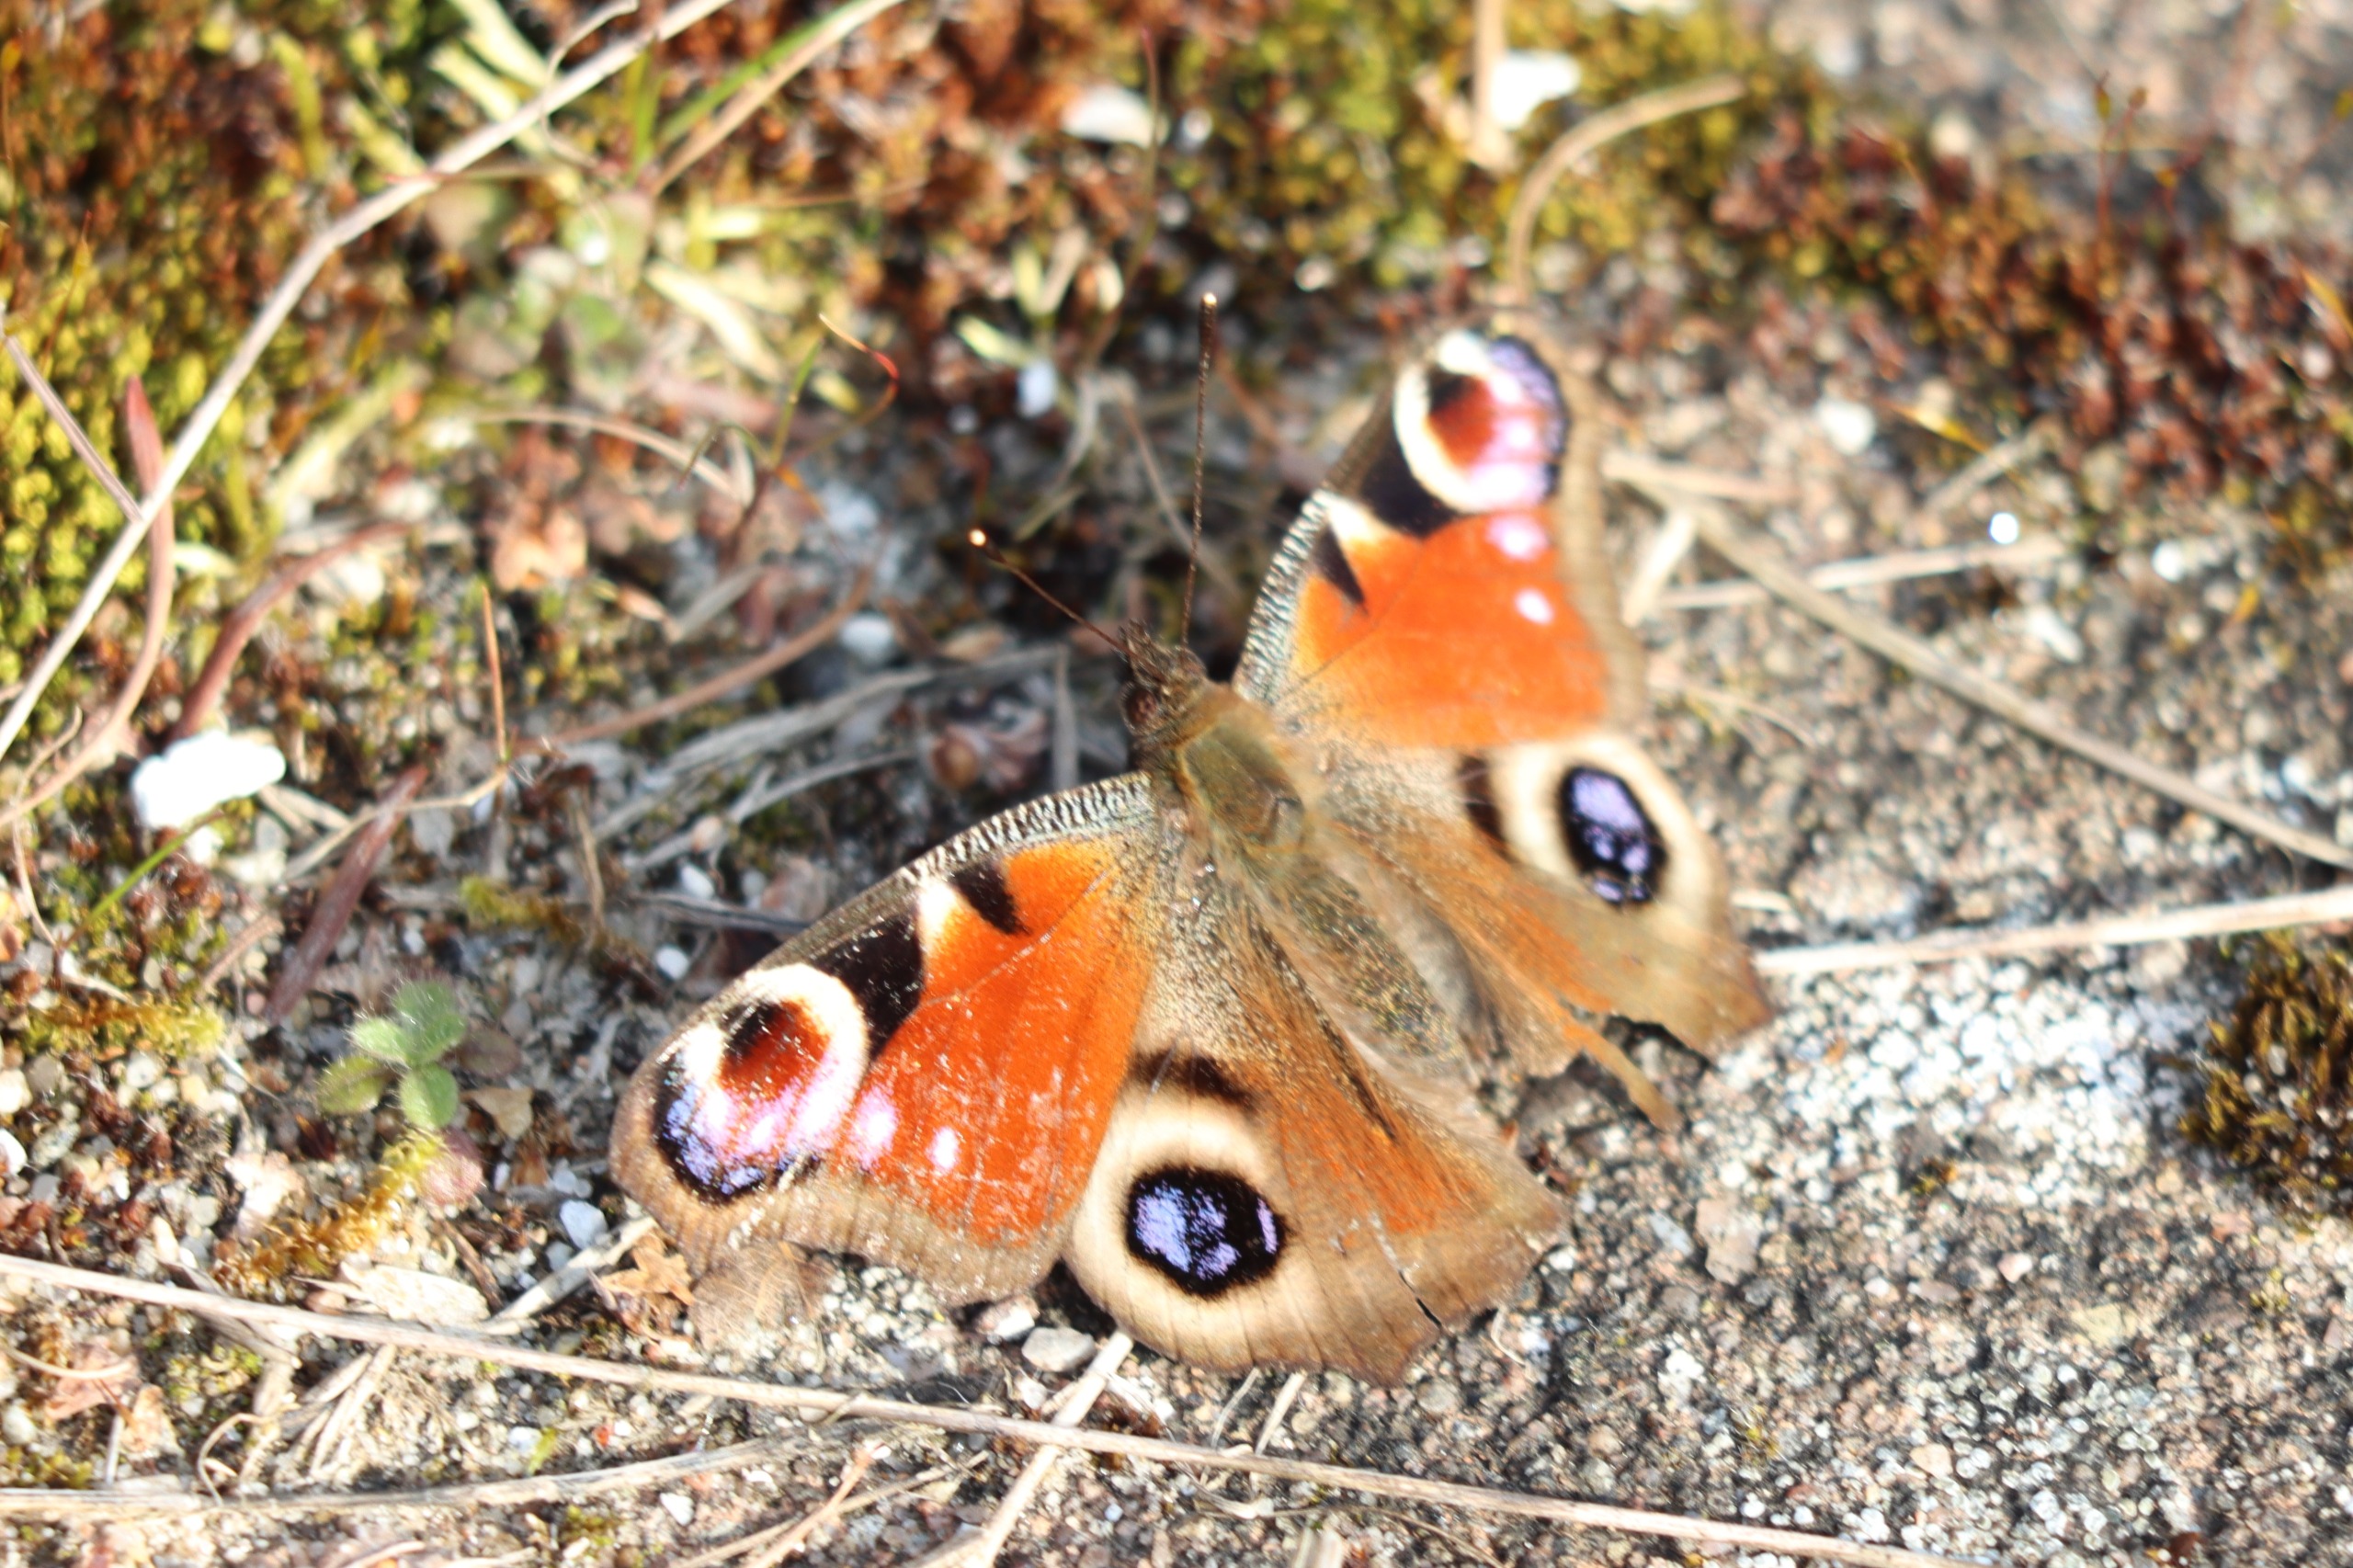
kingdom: Animalia
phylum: Arthropoda
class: Insecta
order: Lepidoptera
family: Nymphalidae
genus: Aglais
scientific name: Aglais io
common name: Dagpåfugleøje
